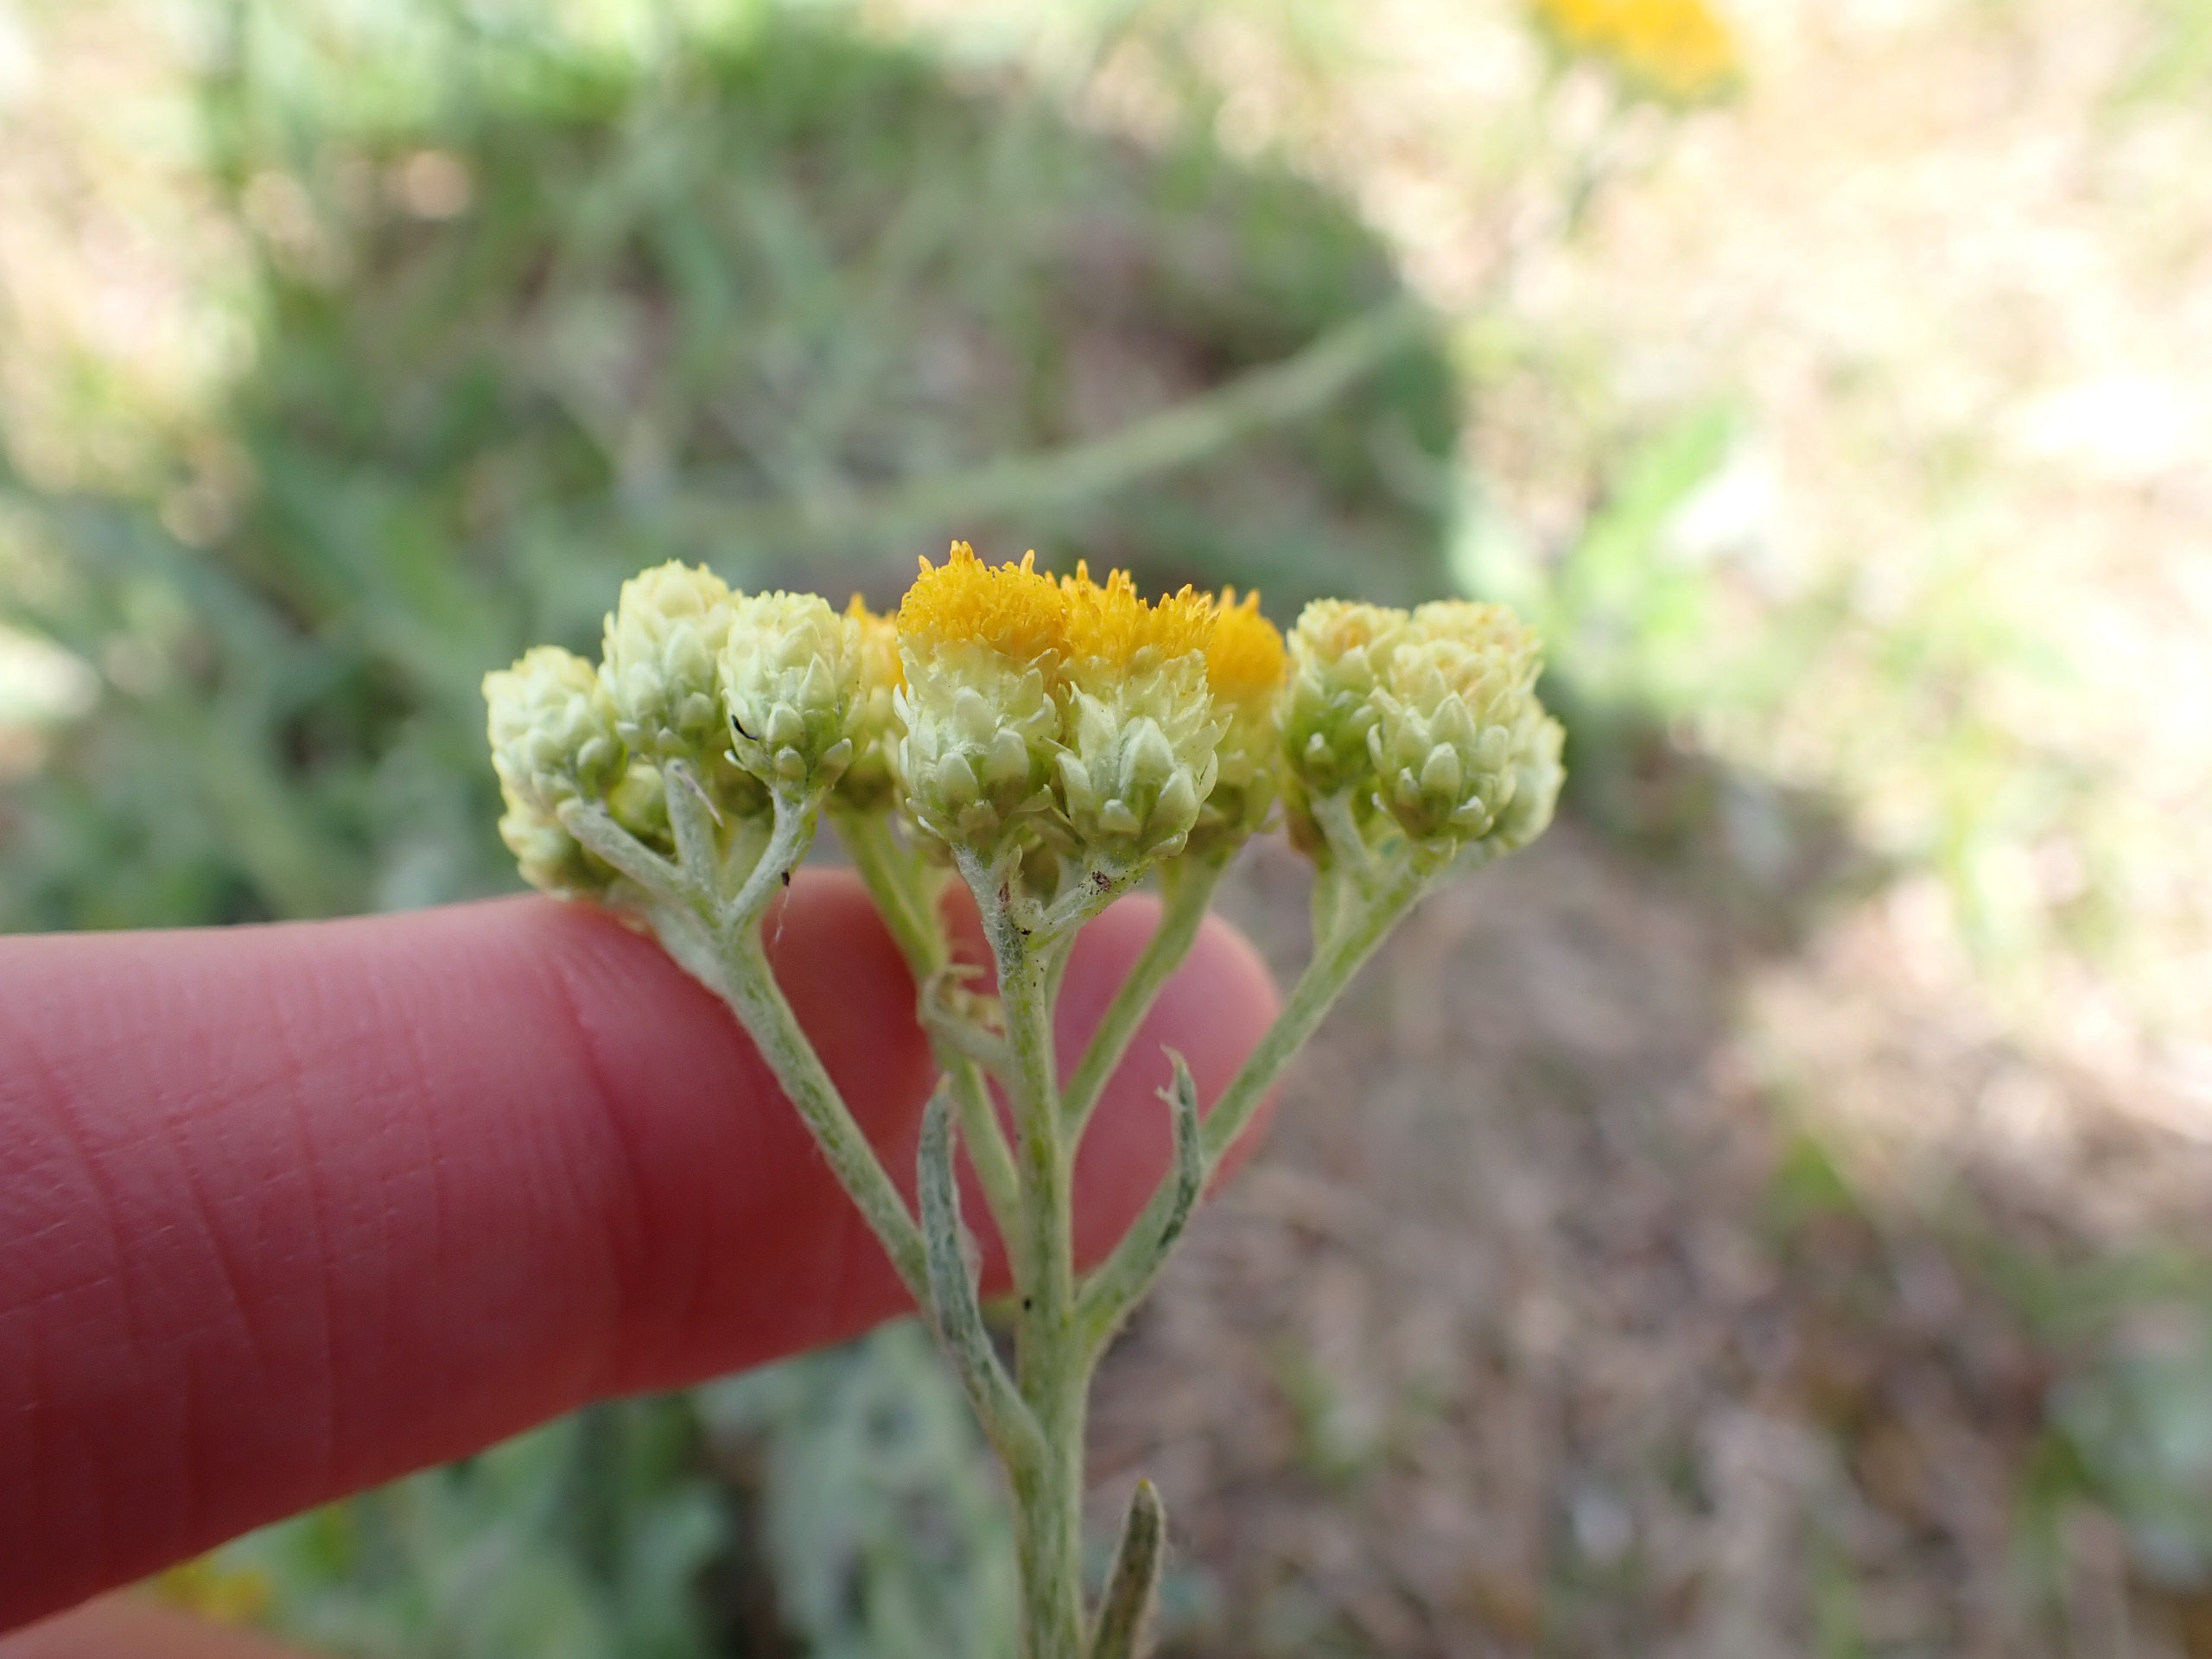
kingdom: Plantae
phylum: Tracheophyta
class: Magnoliopsida
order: Asterales
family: Asteraceae
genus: Helichrysum
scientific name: Helichrysum arenarium
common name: Gul evighedsblomst
